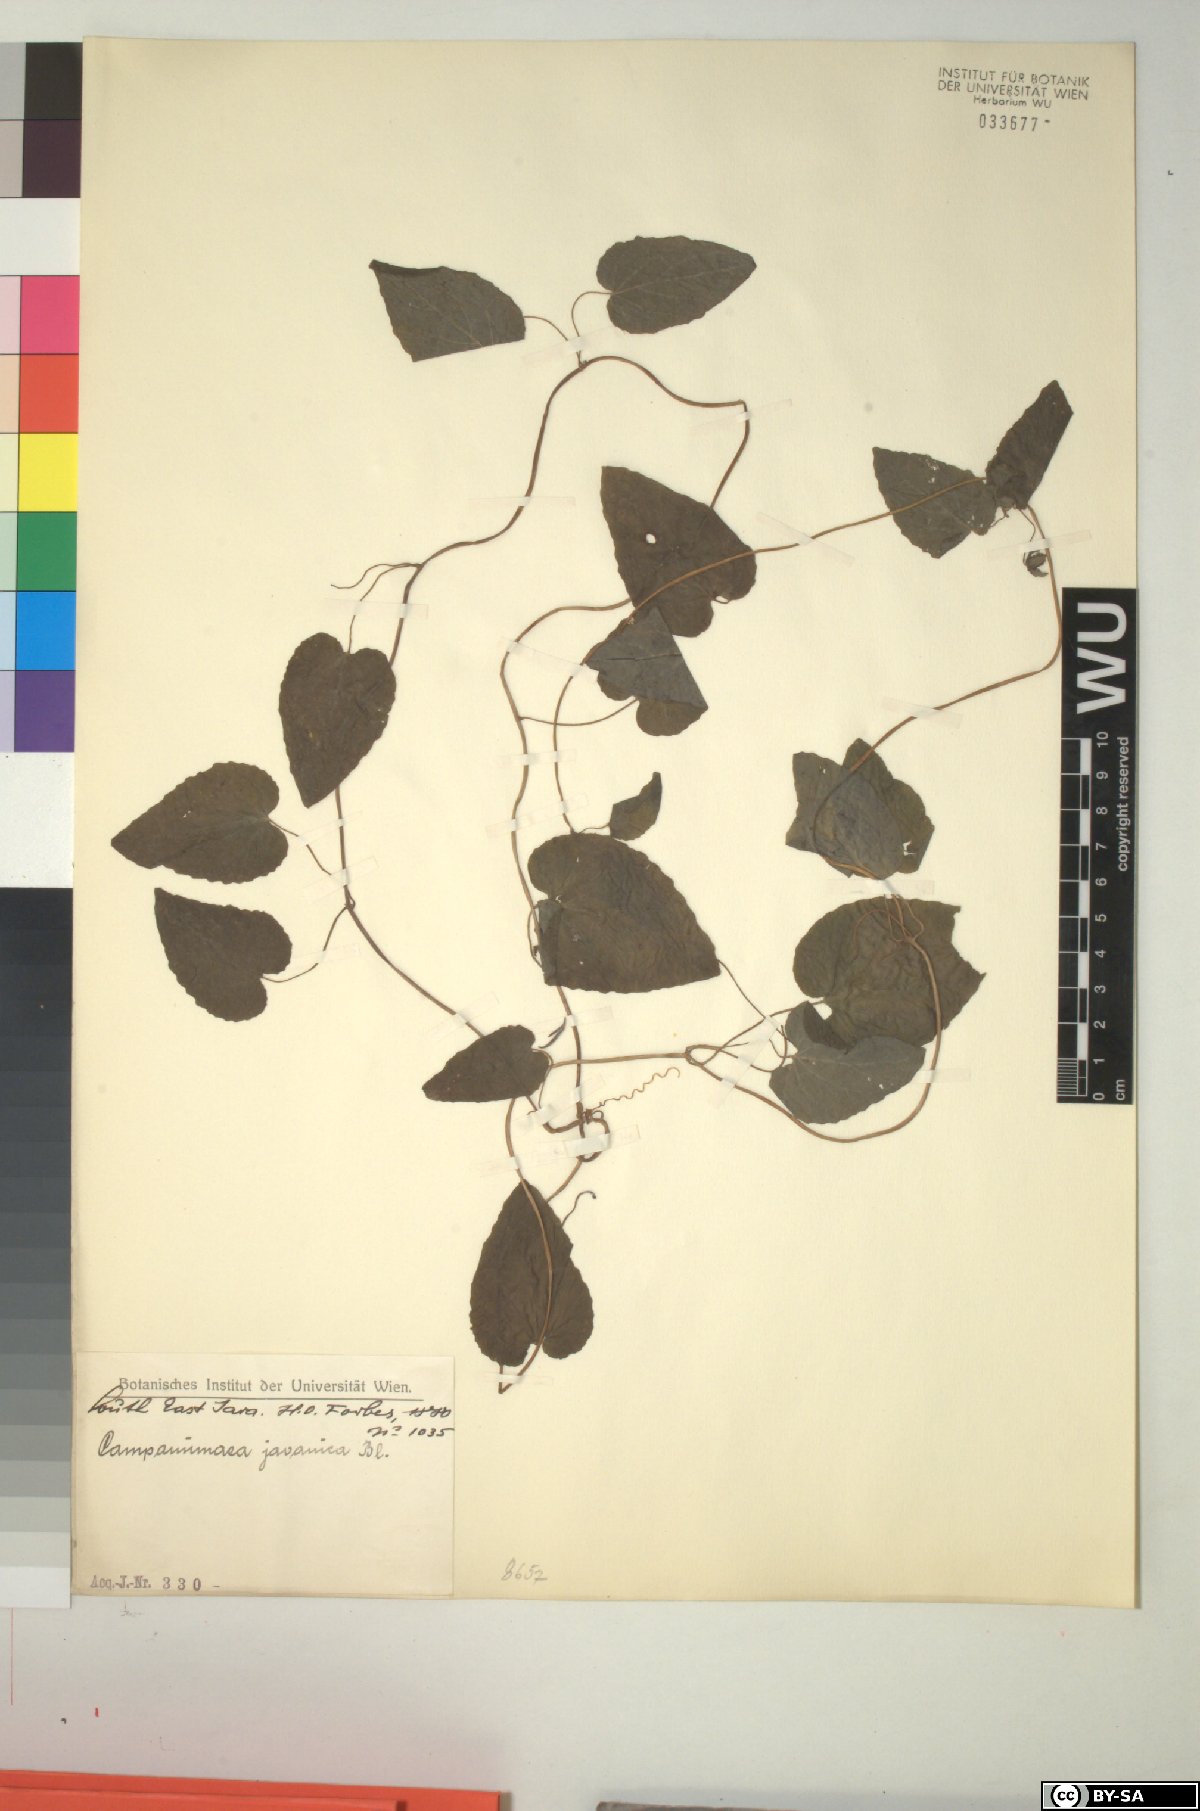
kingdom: Plantae
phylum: Tracheophyta
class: Magnoliopsida
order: Asterales
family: Campanulaceae
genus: Codonopsis
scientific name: Codonopsis javanica
